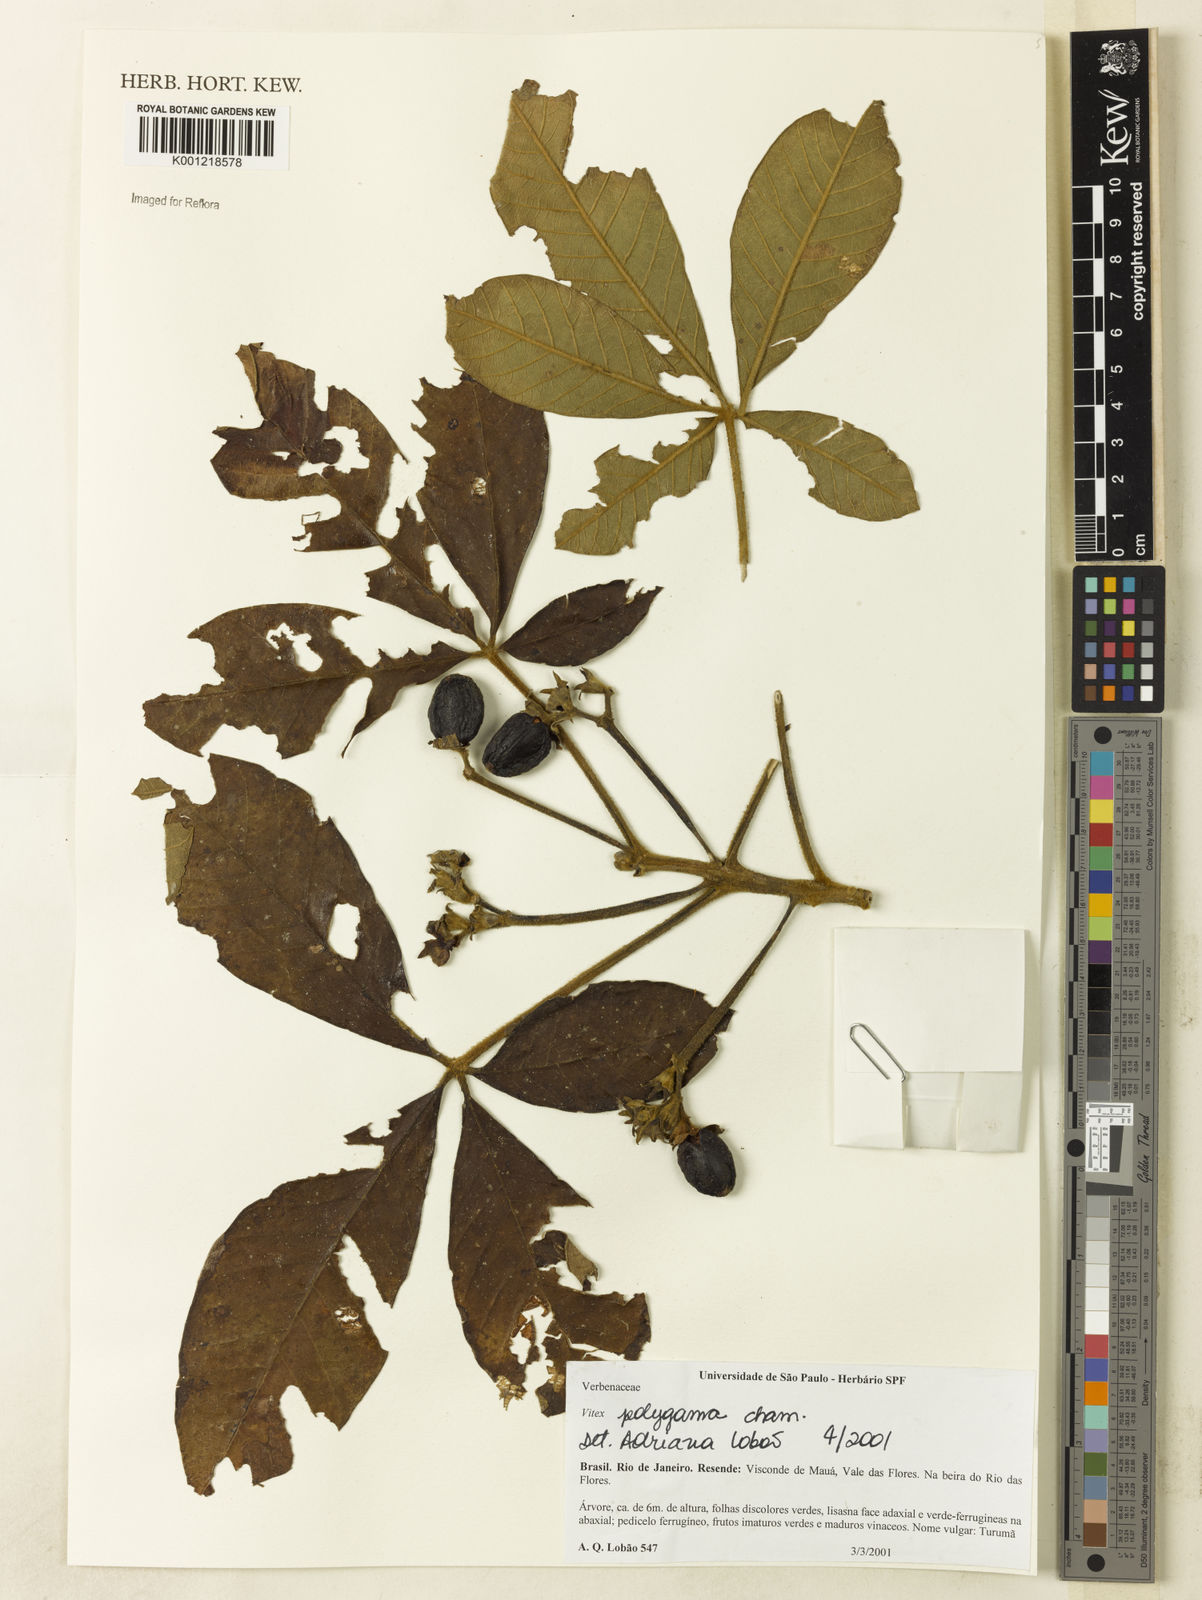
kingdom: Plantae
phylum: Tracheophyta
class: Magnoliopsida
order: Lamiales
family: Lamiaceae
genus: Vitex
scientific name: Vitex polygama
